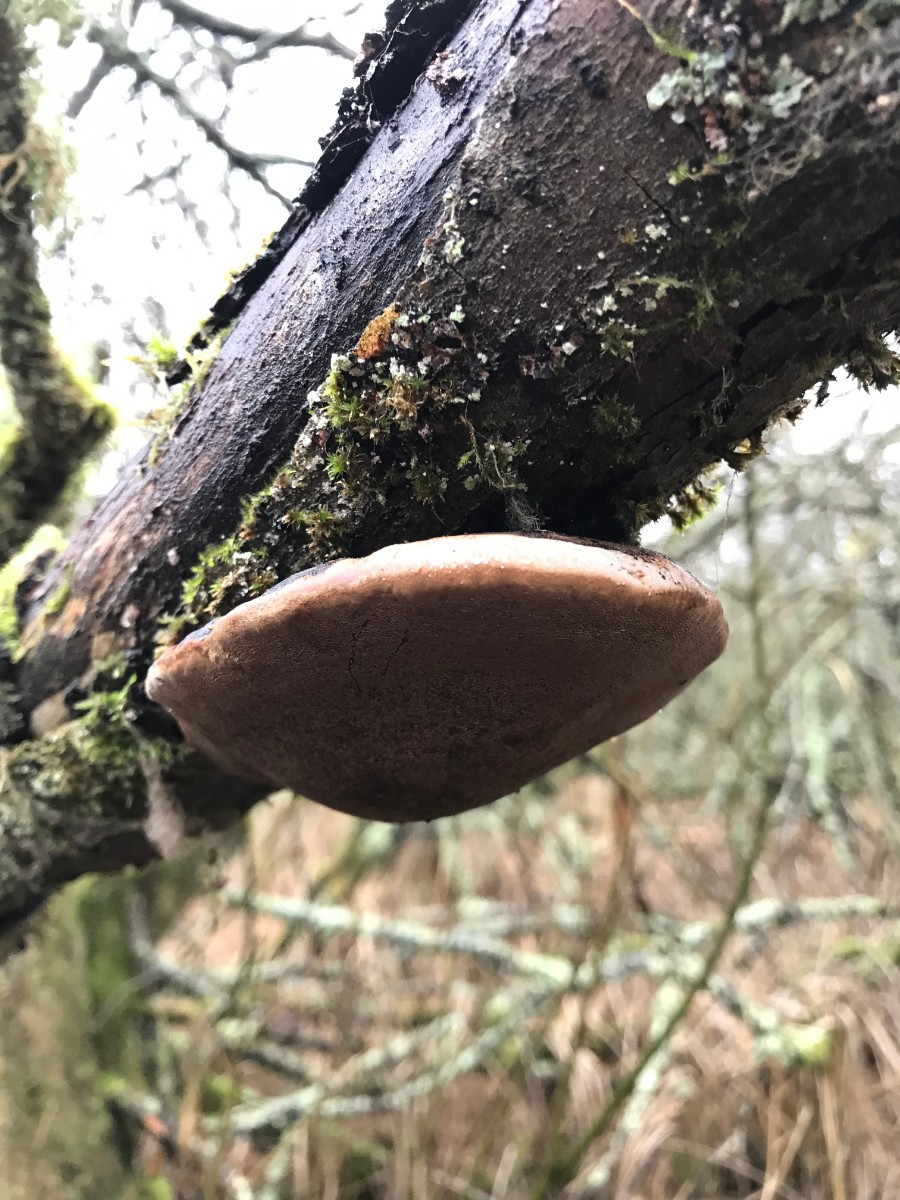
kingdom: Fungi
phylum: Basidiomycota
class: Agaricomycetes
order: Hymenochaetales
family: Hymenochaetaceae
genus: Phellinus
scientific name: Phellinus igniarius
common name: almindelig ildporesvamp
